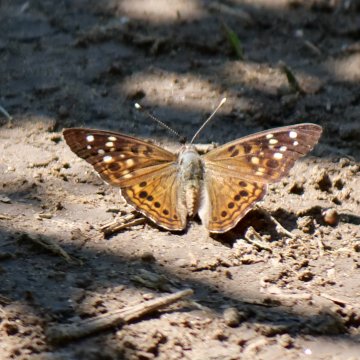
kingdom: Animalia
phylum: Arthropoda
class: Insecta
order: Lepidoptera
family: Nymphalidae
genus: Asterocampa
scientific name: Asterocampa celtis
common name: Hackberry Emperor
